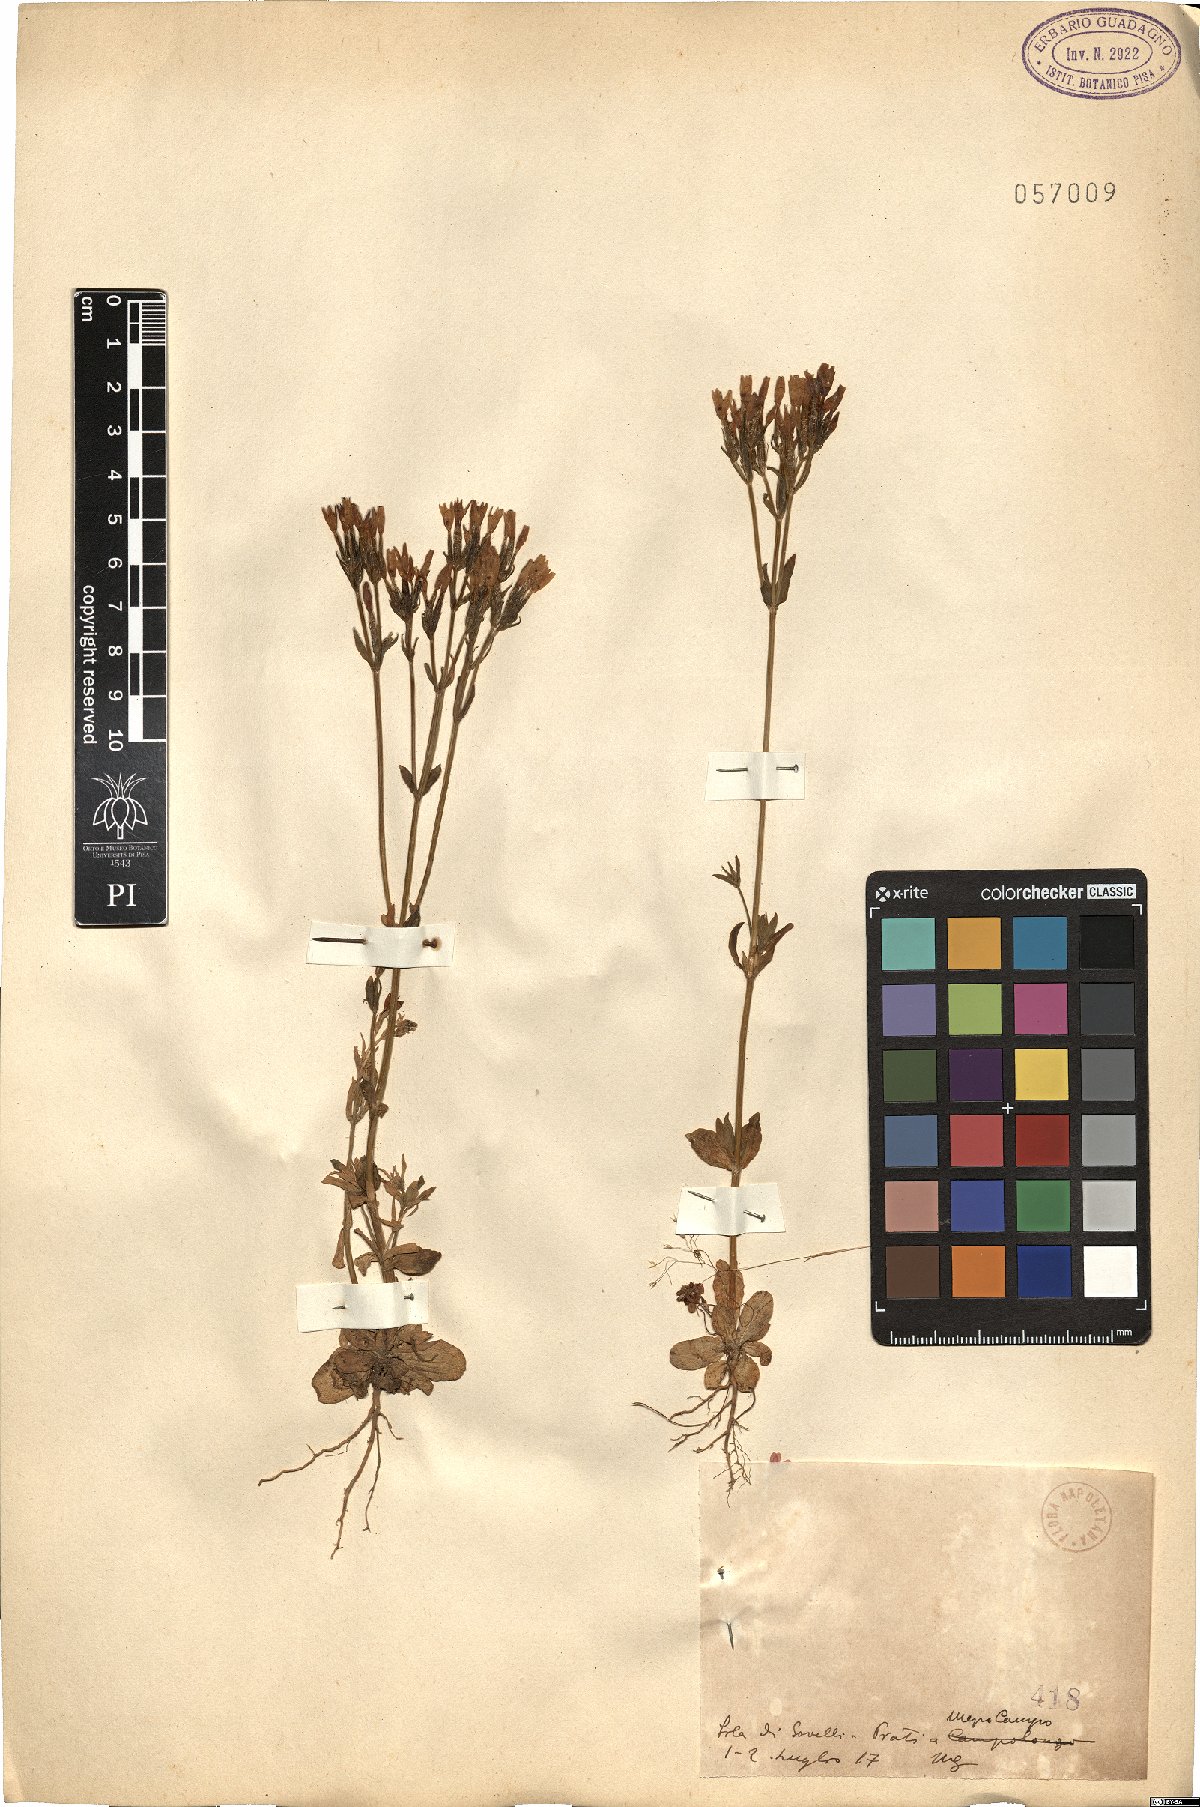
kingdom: Plantae
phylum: Tracheophyta
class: Magnoliopsida
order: Gentianales
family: Gentianaceae
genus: Erythraea
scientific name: Erythraea
